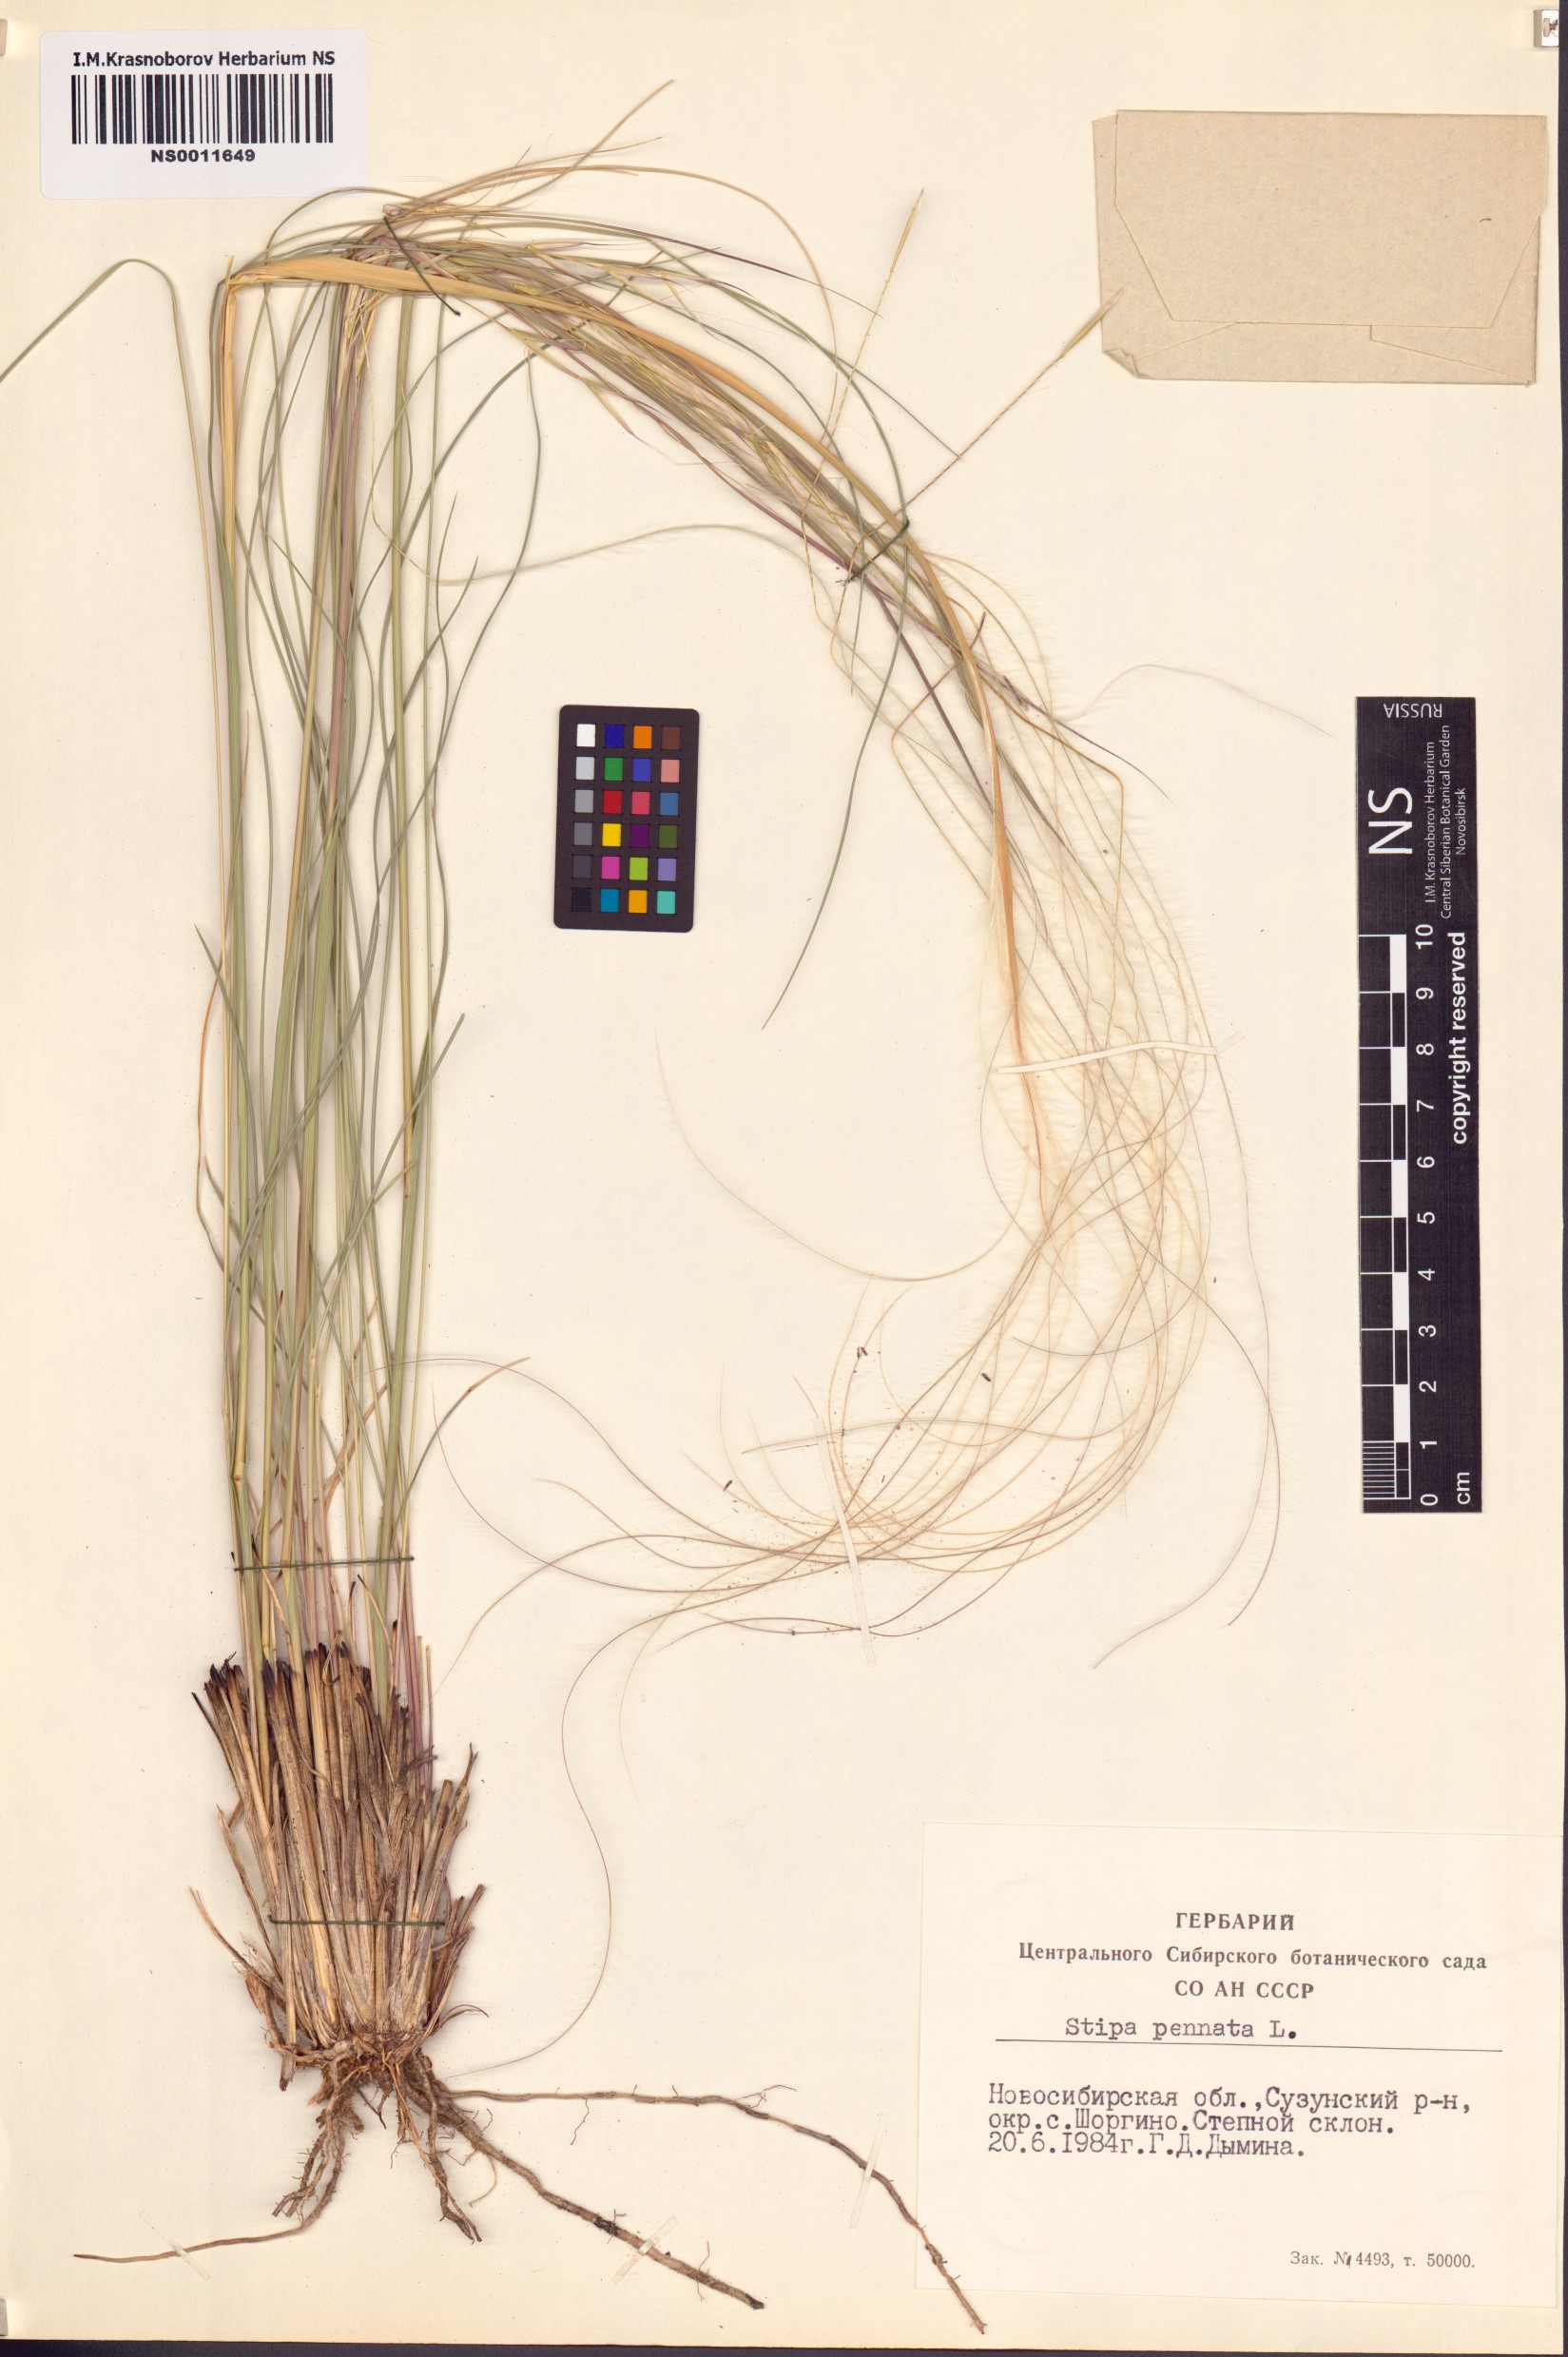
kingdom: Plantae
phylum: Tracheophyta
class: Liliopsida
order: Poales
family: Poaceae
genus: Stipa
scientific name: Stipa pennata
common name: European feather grass
